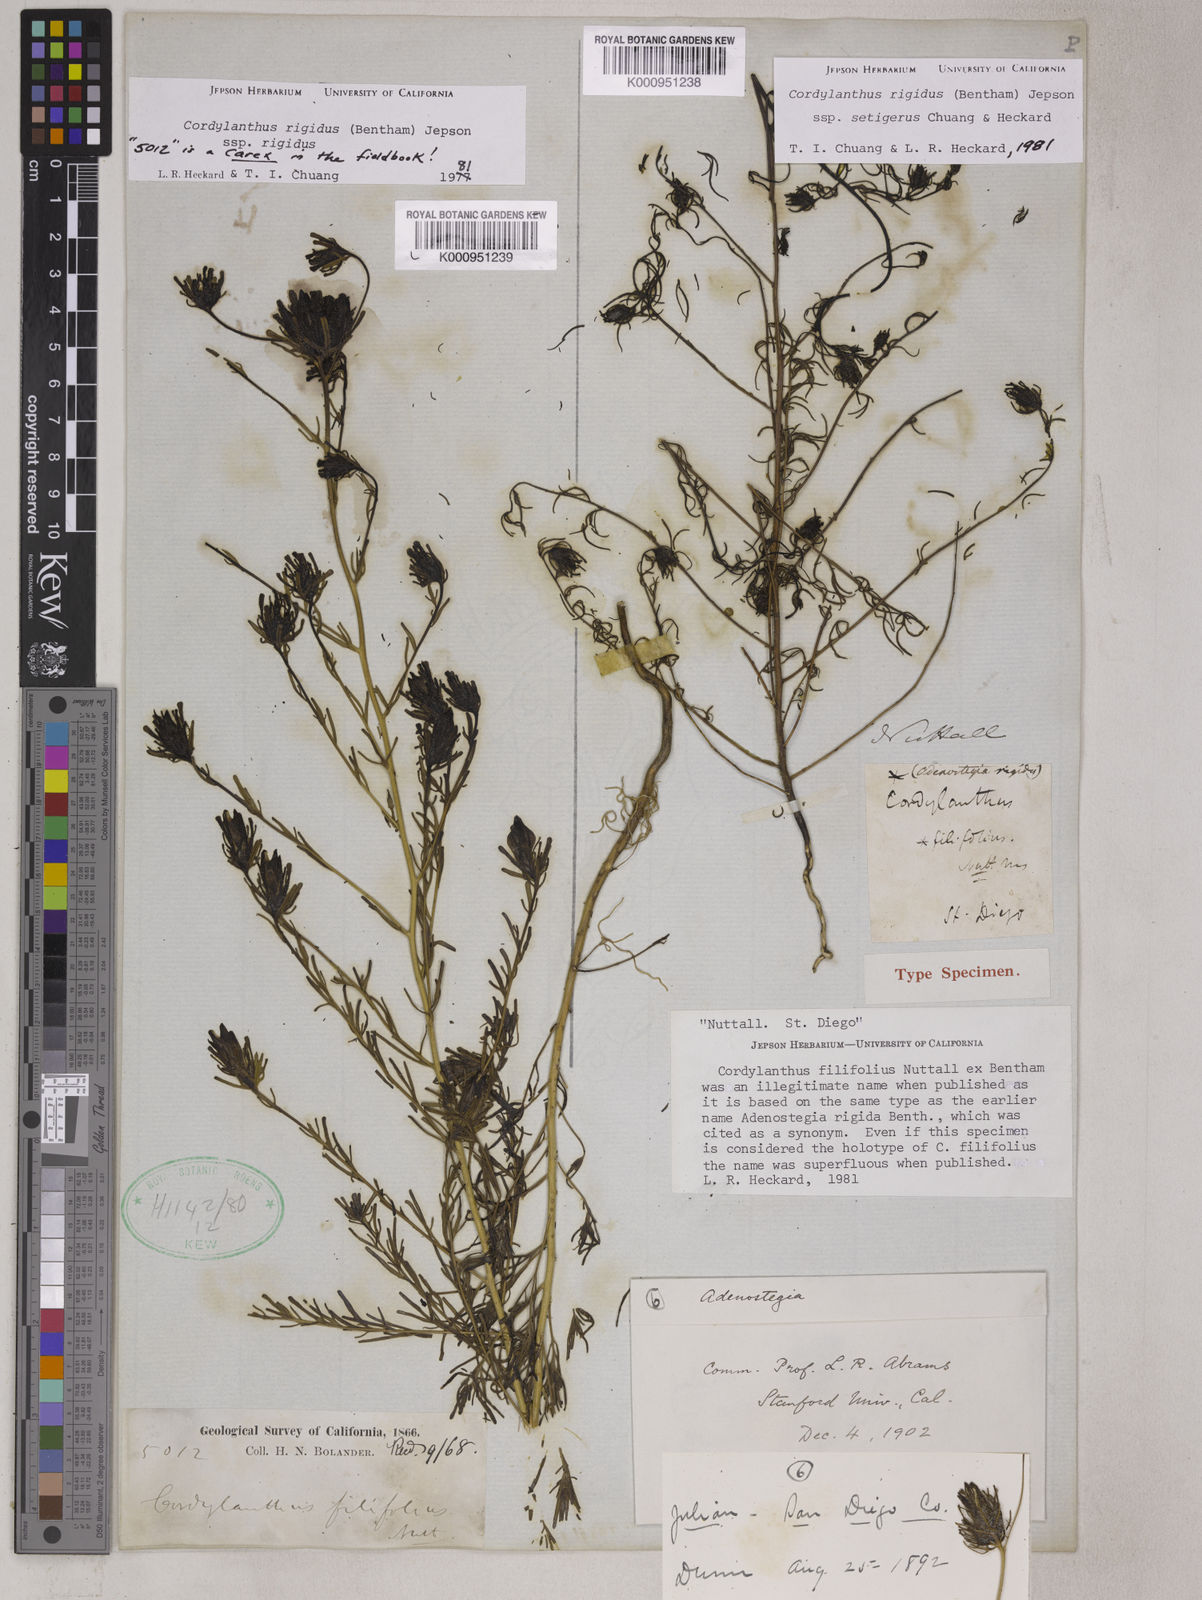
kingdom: Plantae
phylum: Tracheophyta
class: Magnoliopsida
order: Lamiales
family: Orobanchaceae
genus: Cordylanthus
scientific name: Cordylanthus rigidus
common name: Stiff-branch bird's-beak
